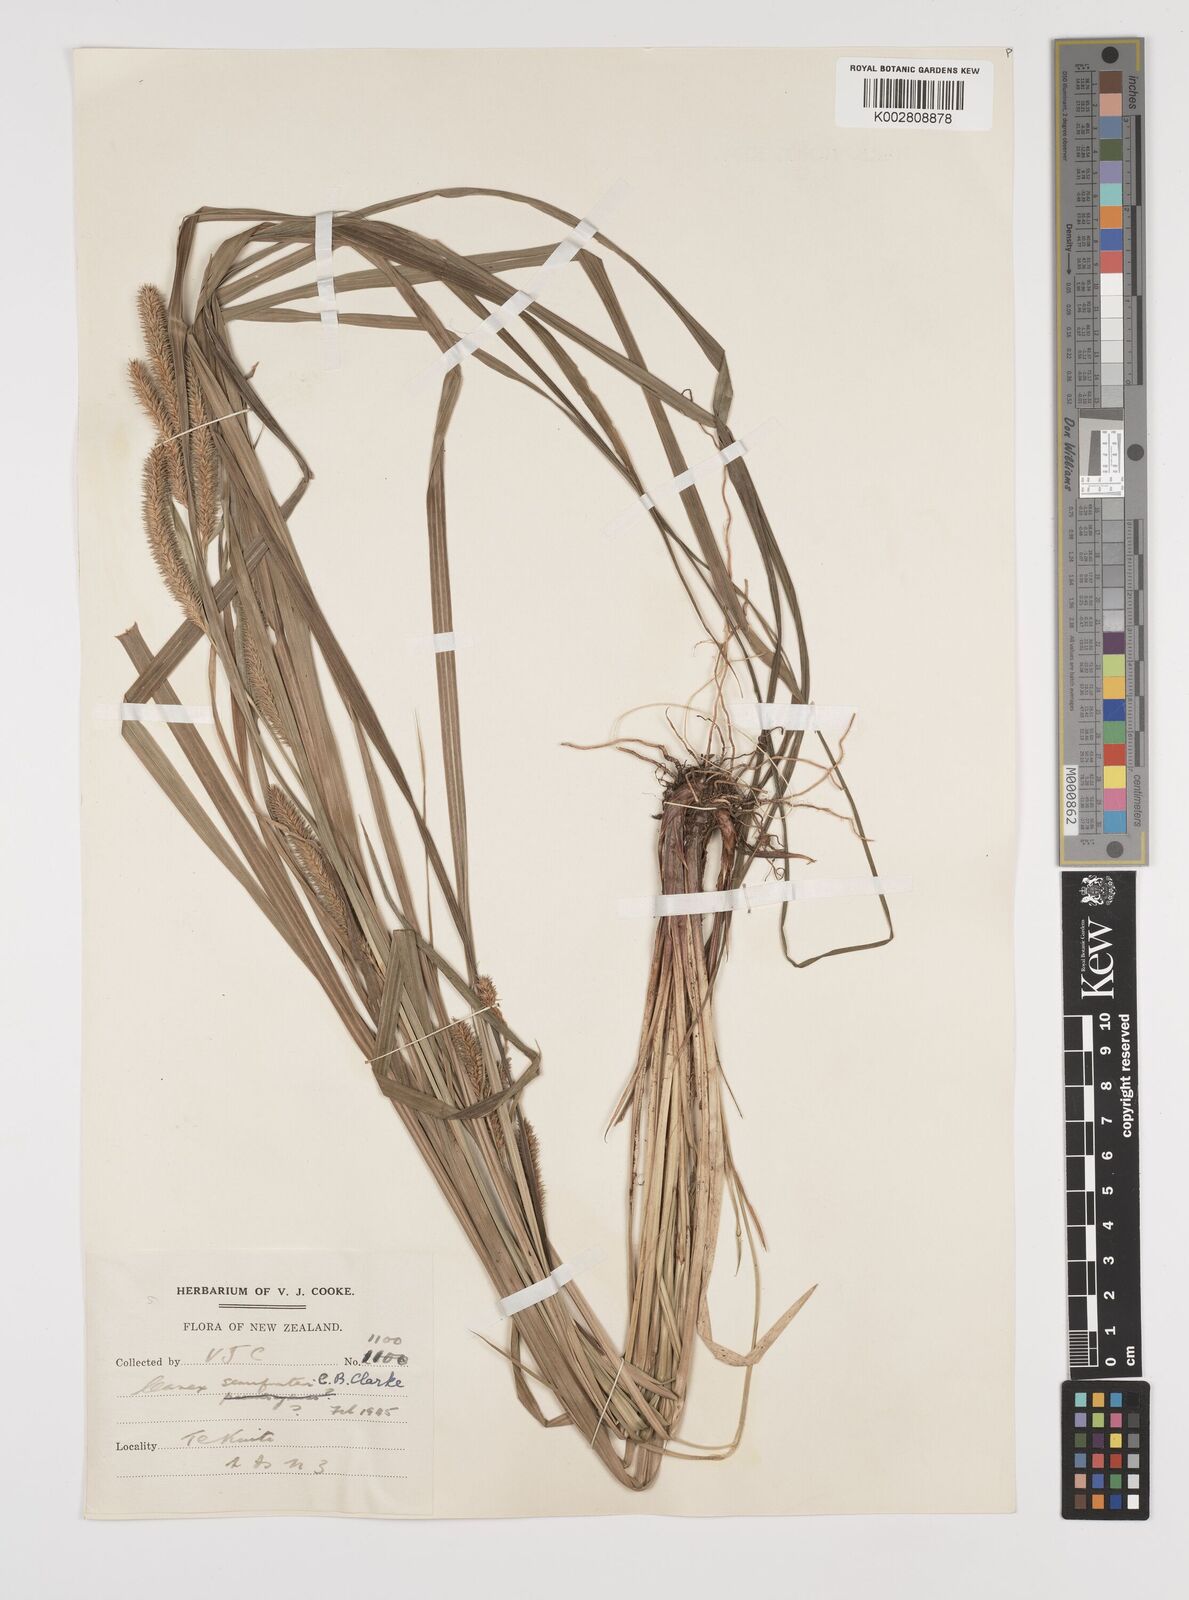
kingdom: Plantae
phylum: Tracheophyta
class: Liliopsida
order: Poales
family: Cyperaceae
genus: Carex
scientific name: Carex forsteri
